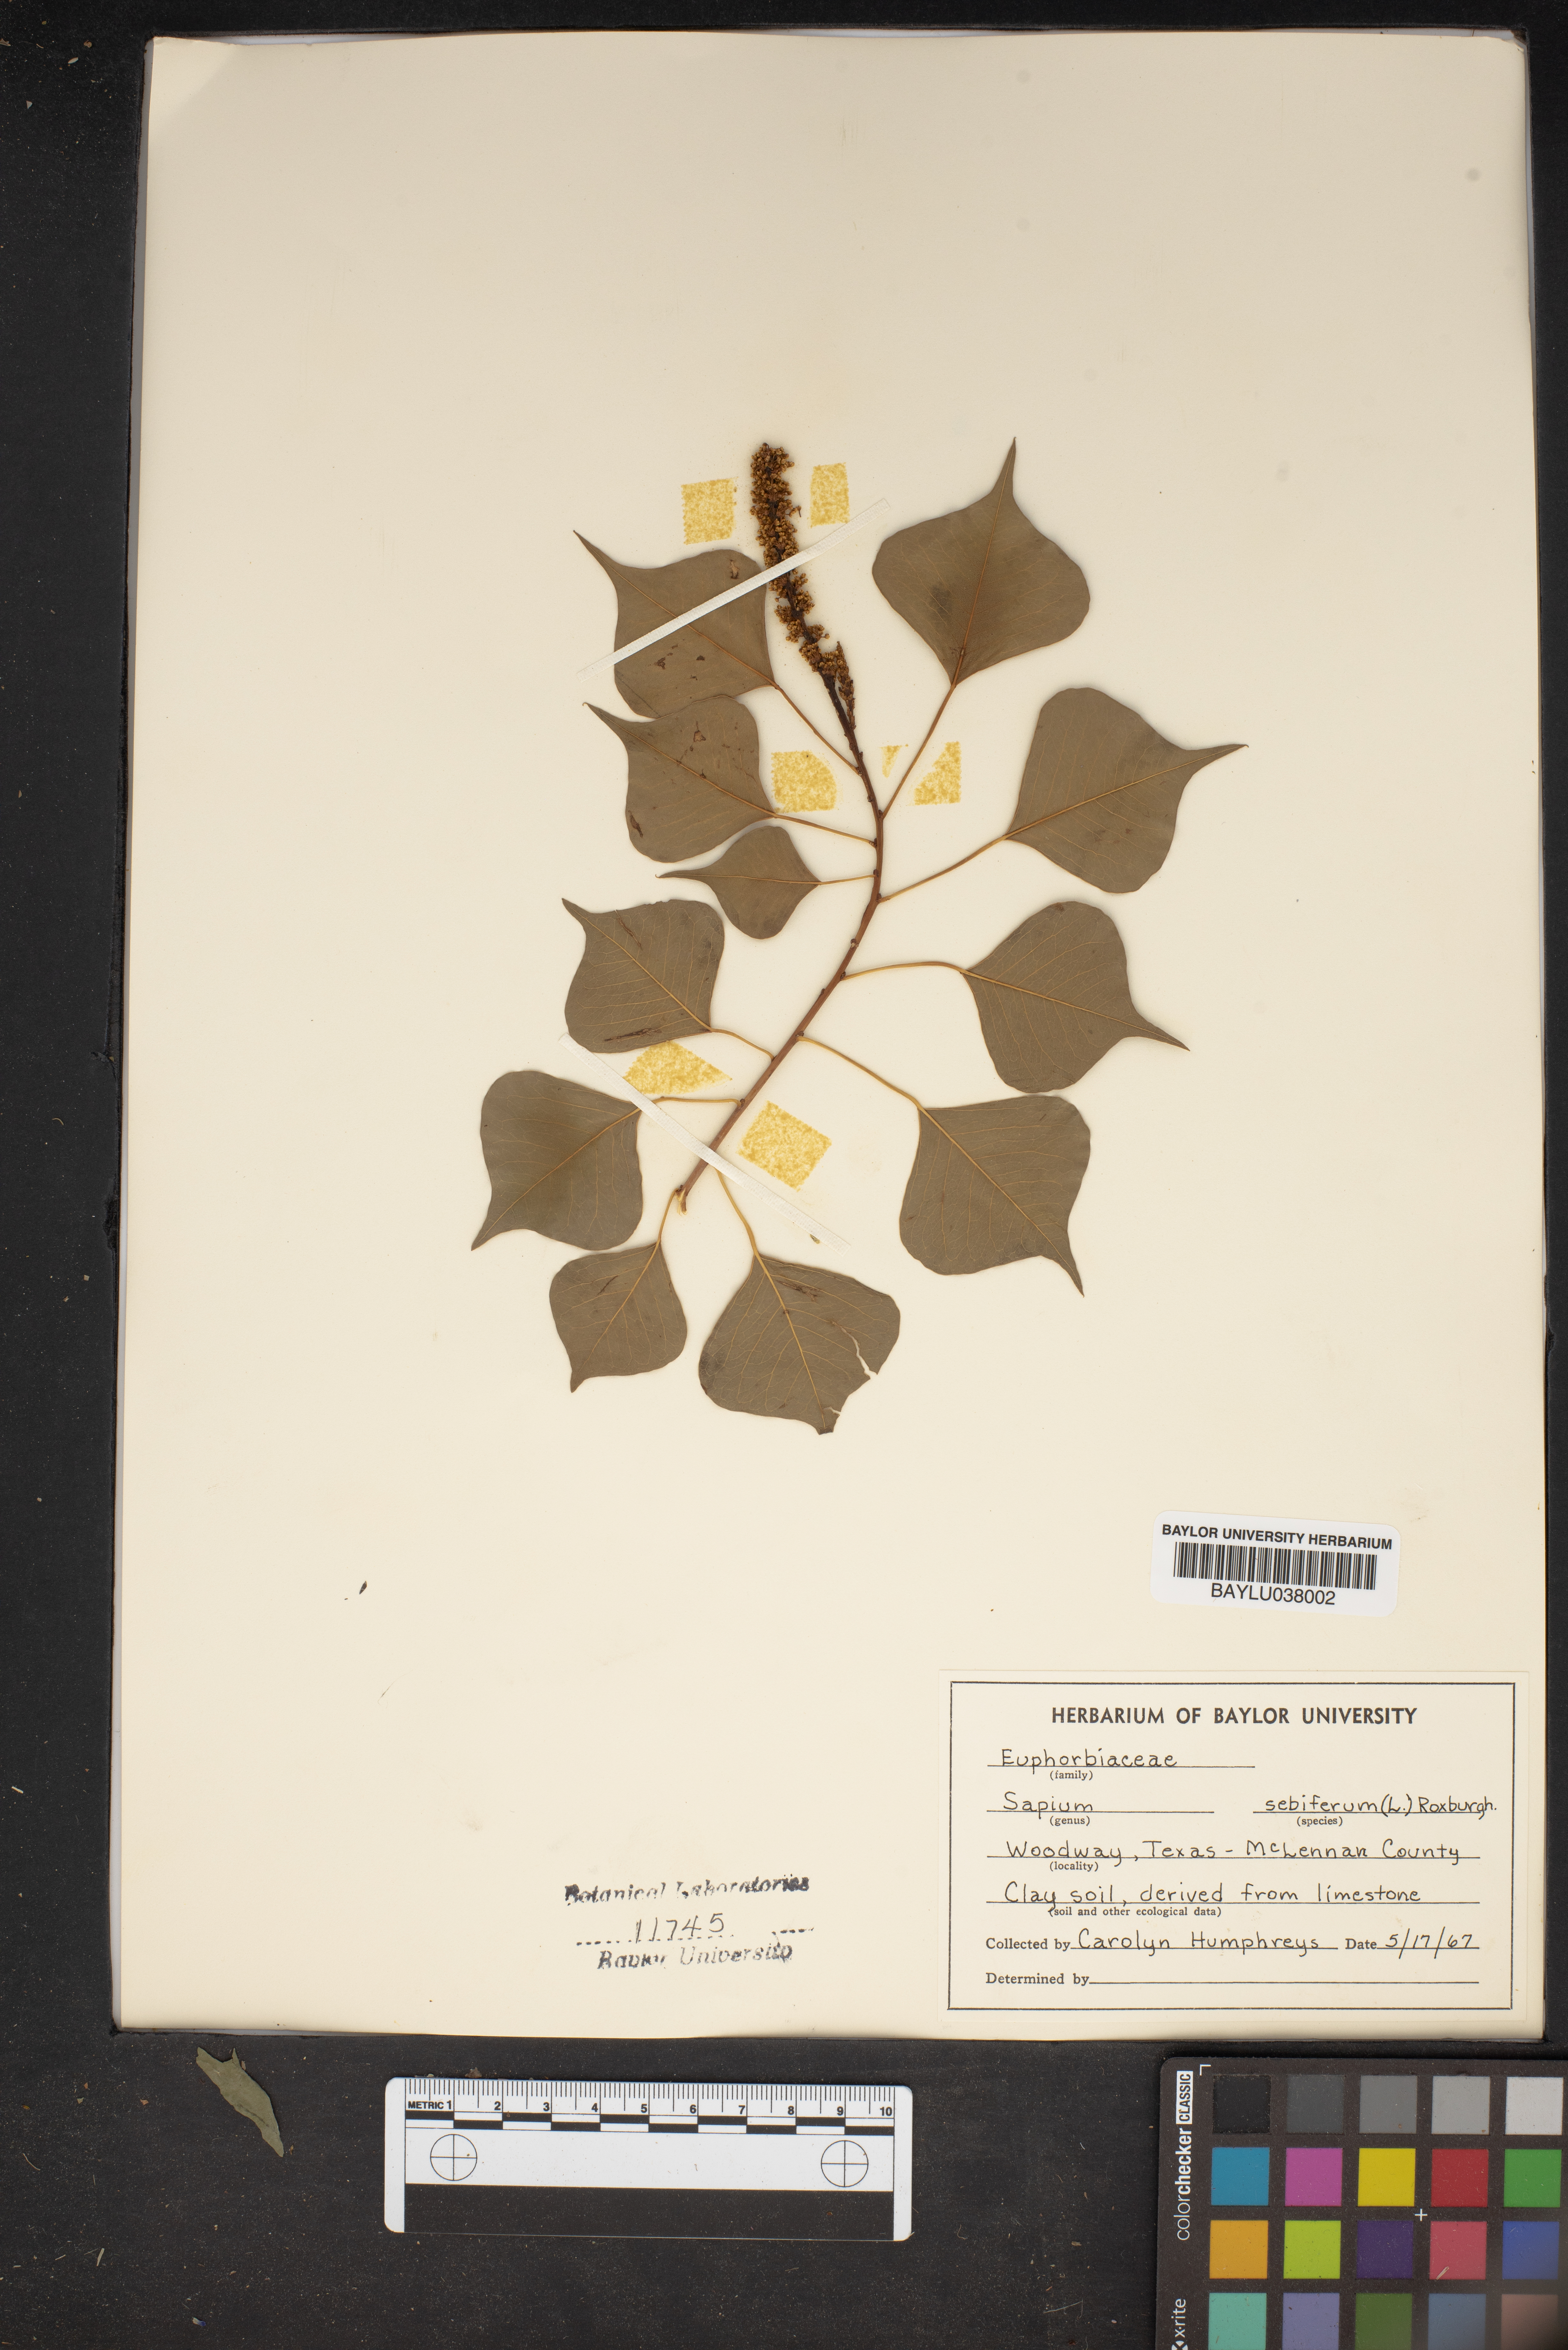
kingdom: Plantae
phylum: Tracheophyta
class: Magnoliopsida
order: Malpighiales
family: Euphorbiaceae
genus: Triadica
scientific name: Triadica sebifera
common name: Chinese tallow
